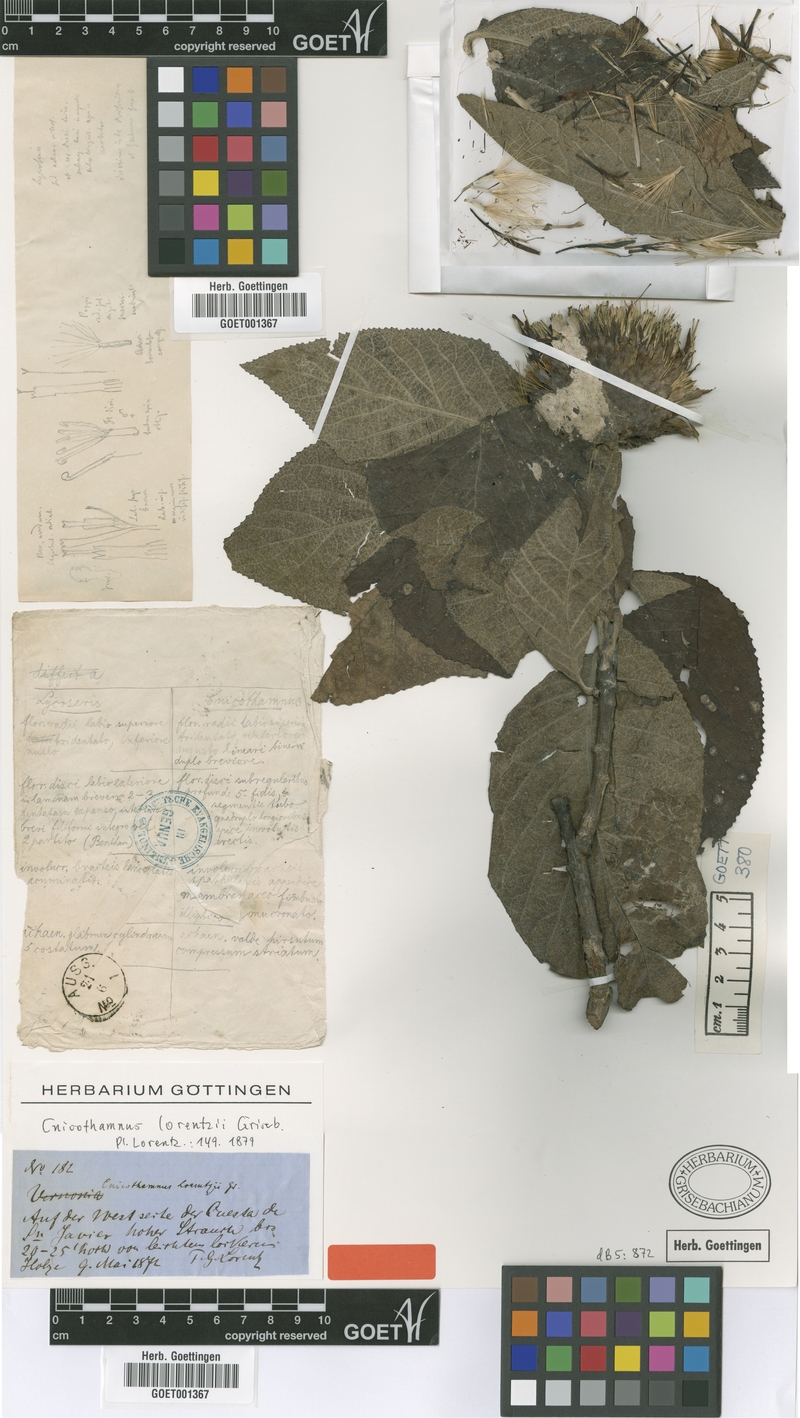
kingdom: Plantae
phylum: Tracheophyta
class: Magnoliopsida
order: Asterales
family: Asteraceae
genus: Cnicothamnus
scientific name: Cnicothamnus lorentzii
